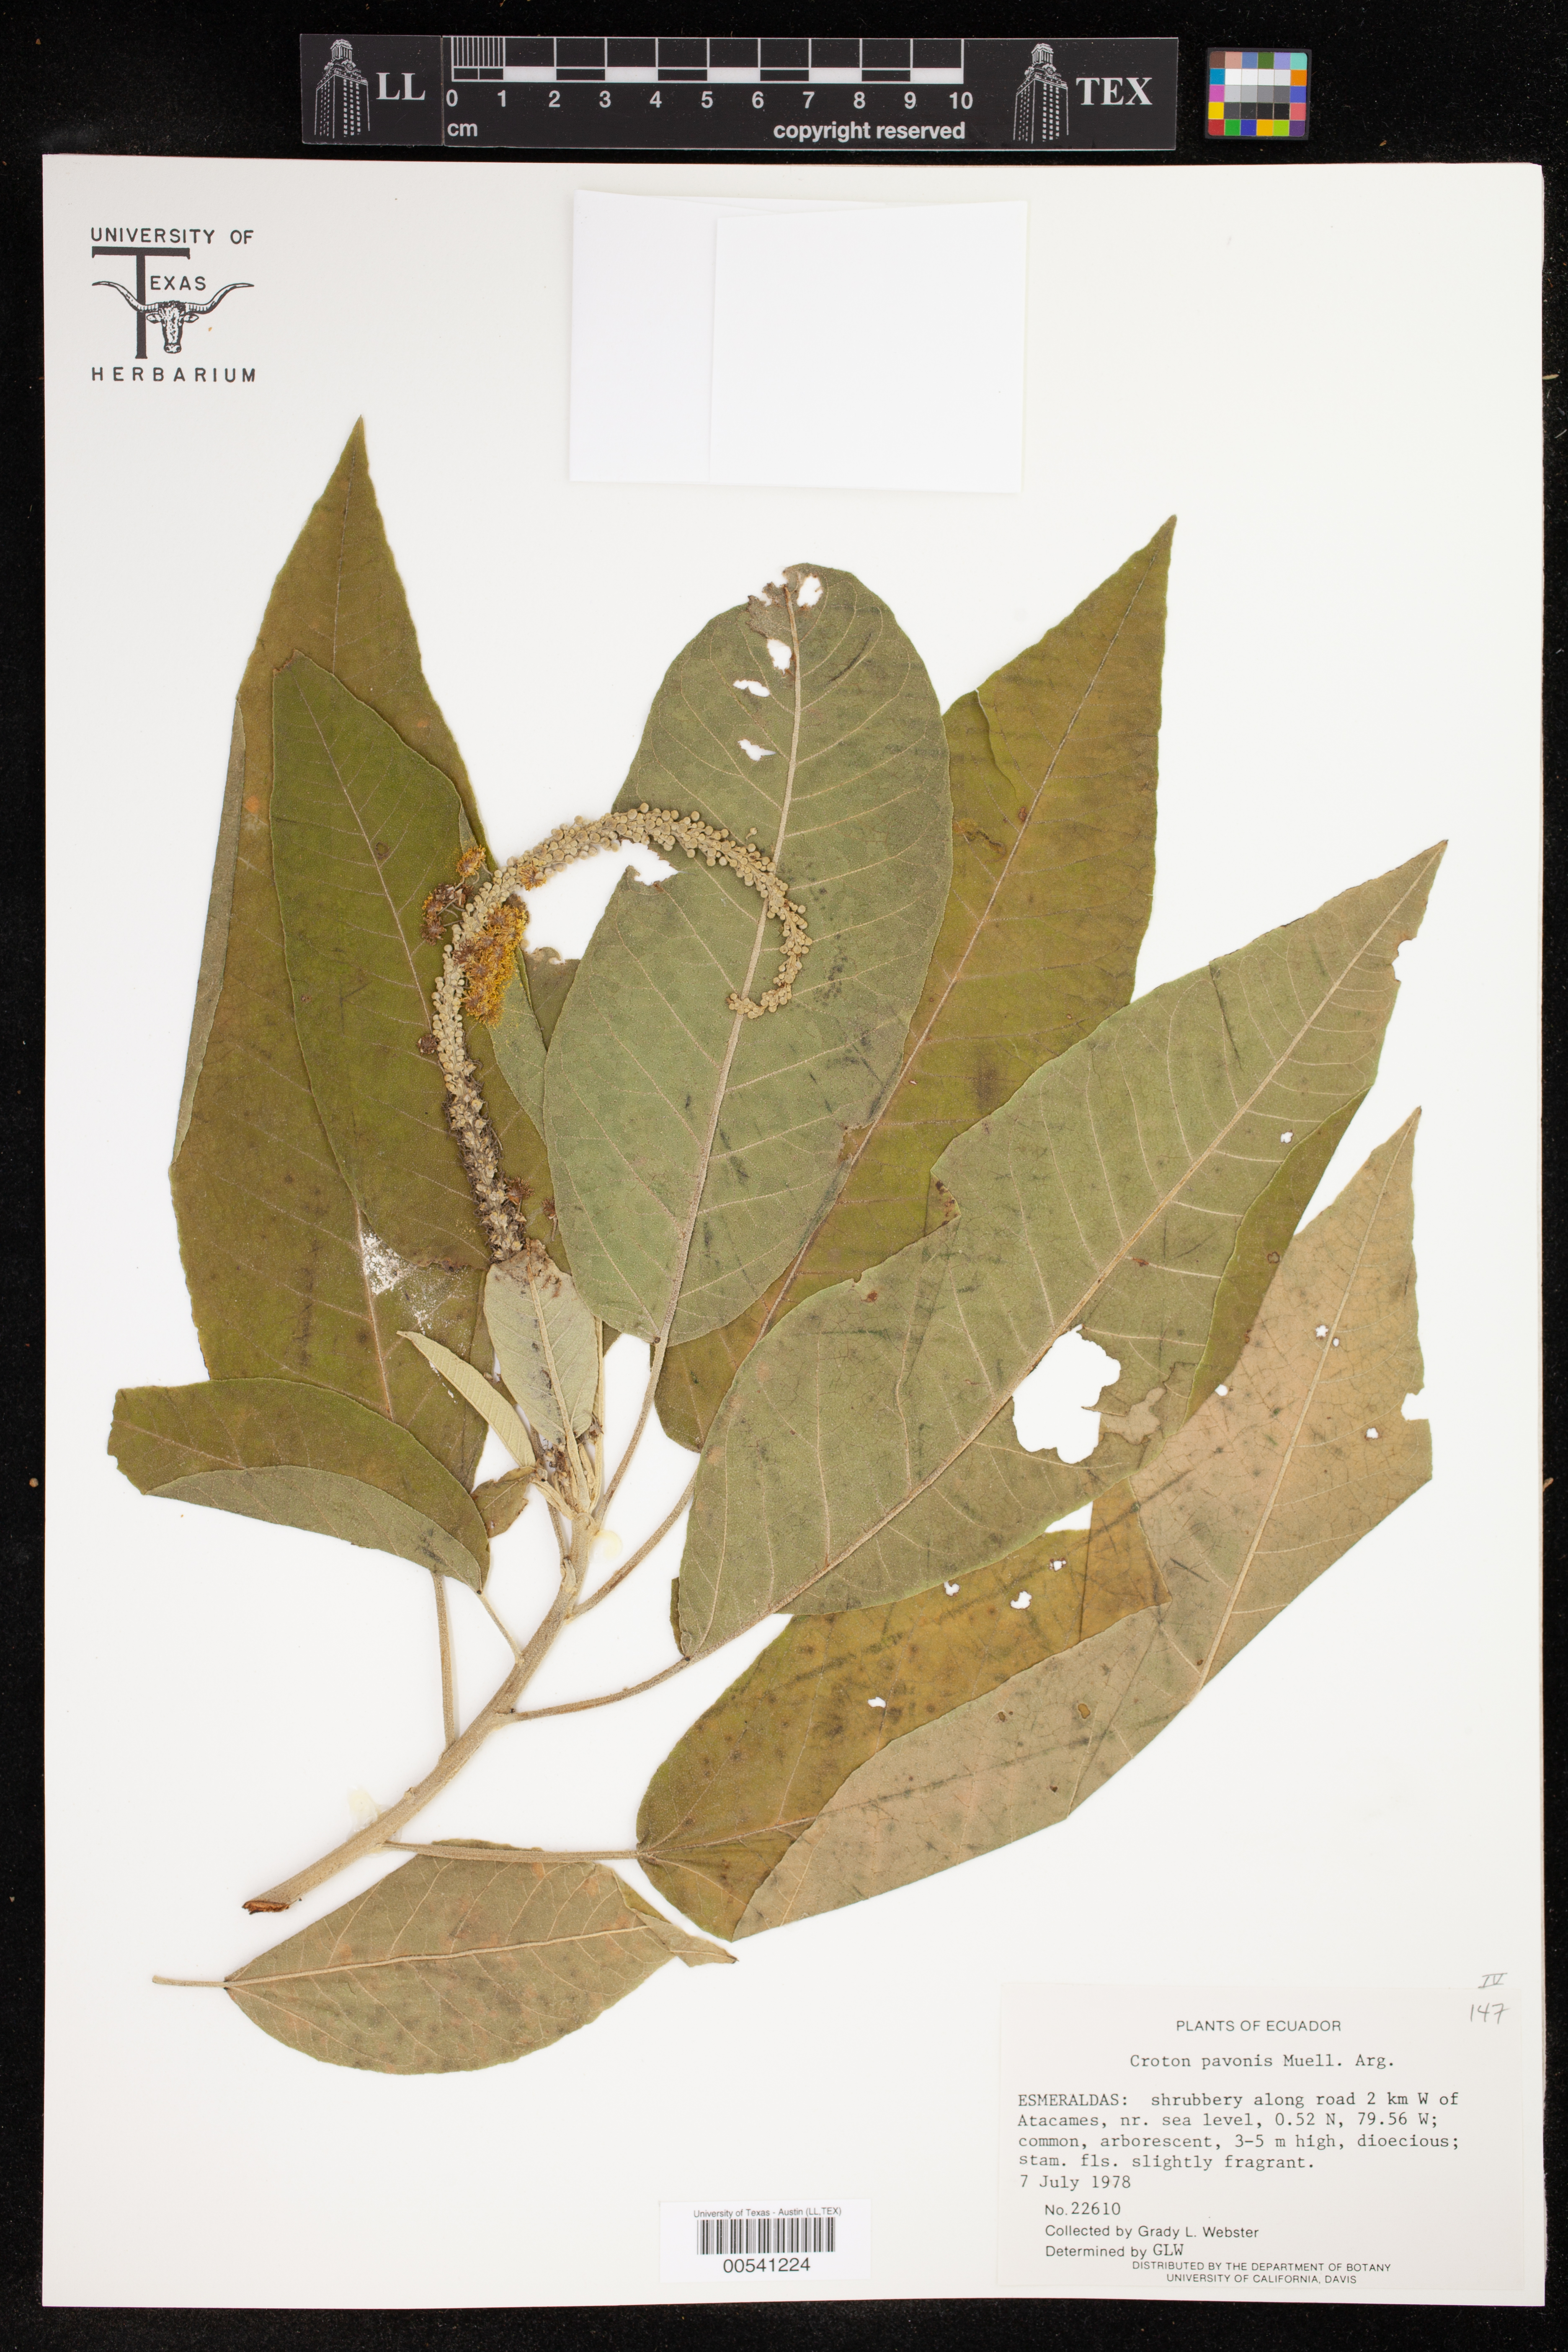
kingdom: Plantae
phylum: Tracheophyta
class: Magnoliopsida
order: Malpighiales
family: Euphorbiaceae
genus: Croton
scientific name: Croton pavonis
